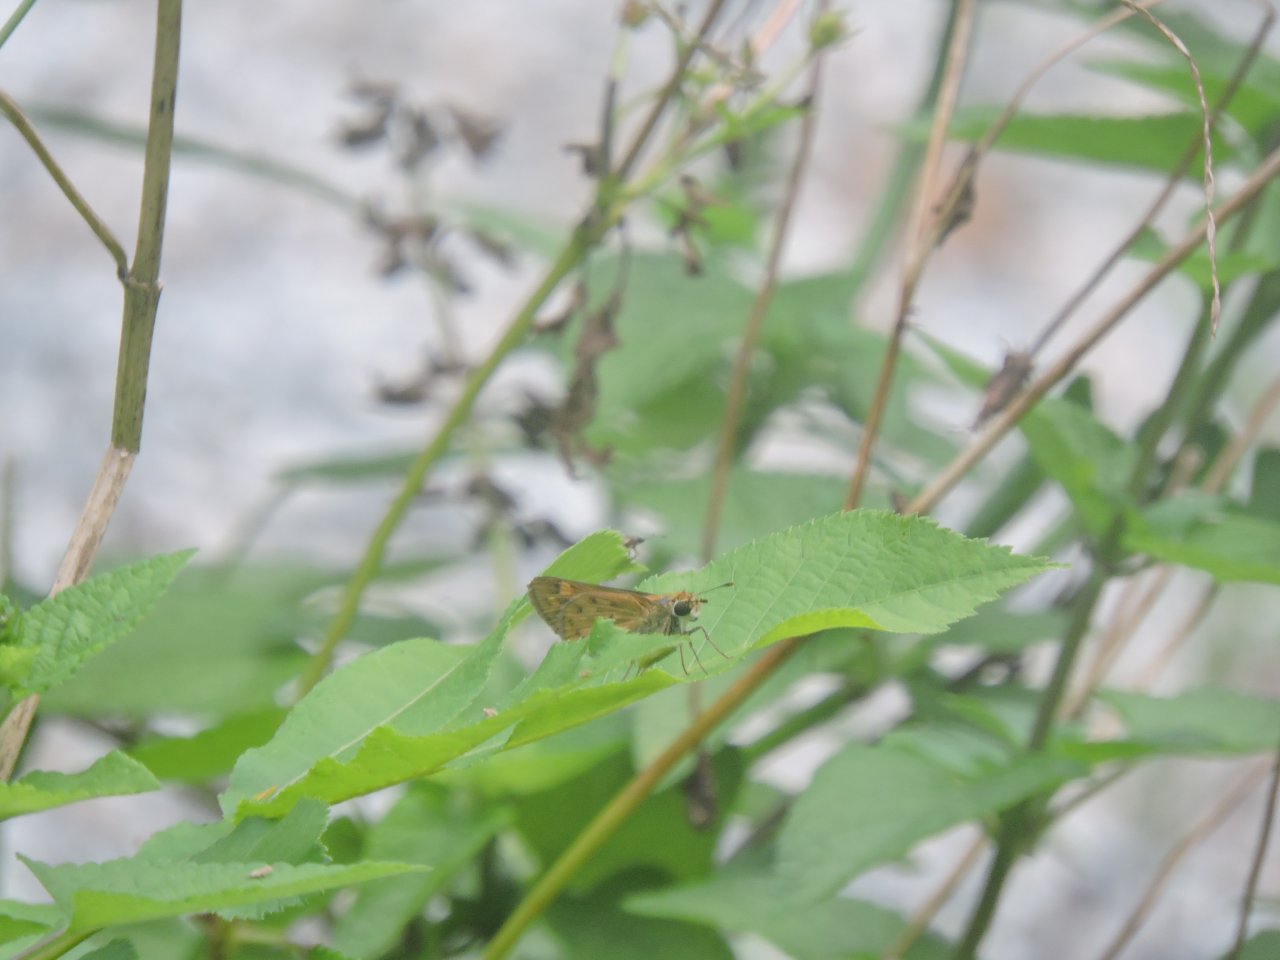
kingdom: Animalia
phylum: Arthropoda
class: Insecta
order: Lepidoptera
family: Hesperiidae
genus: Hylephila
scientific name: Hylephila phyleus
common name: Fiery Skipper
